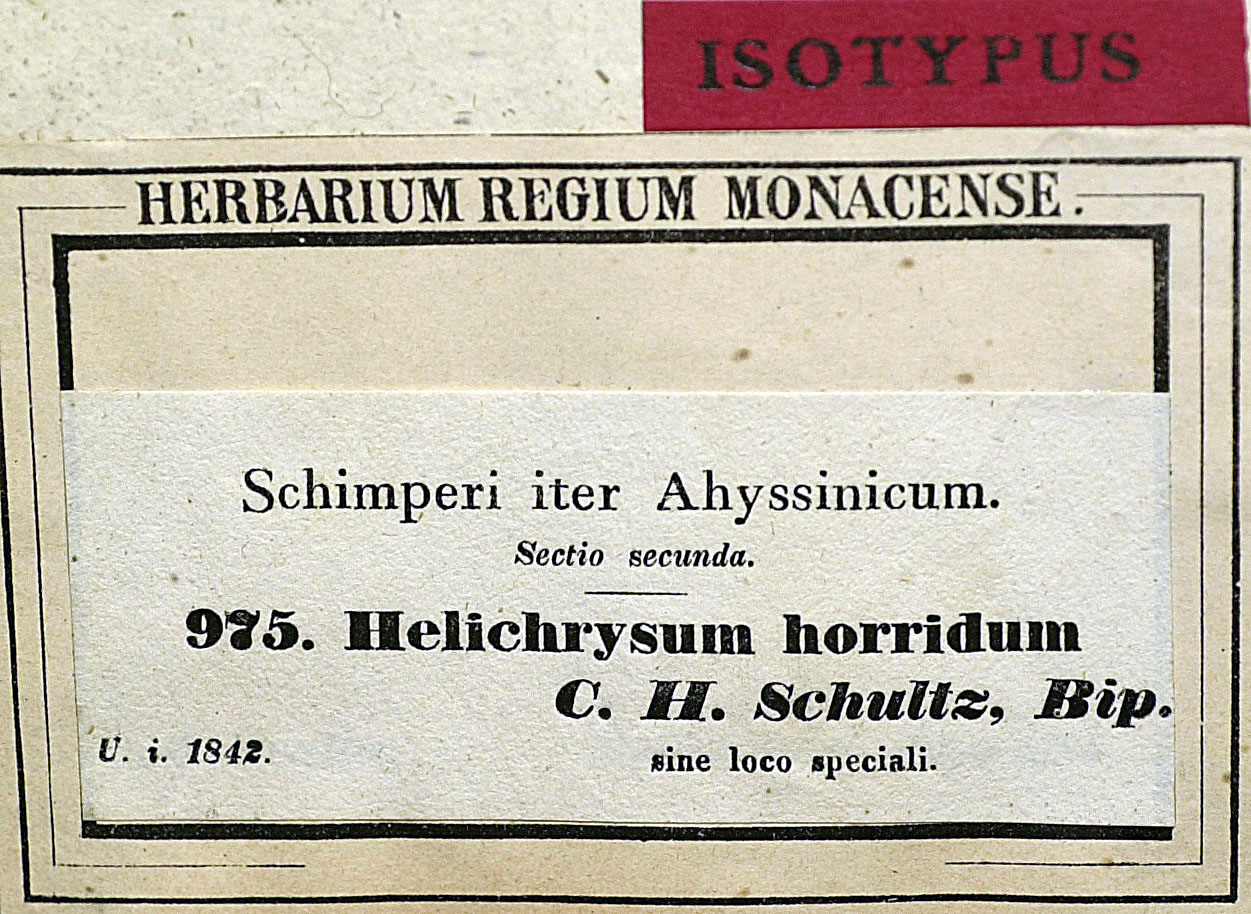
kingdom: Plantae
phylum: Tracheophyta
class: Magnoliopsida
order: Asterales
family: Asteraceae
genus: Helichrysum
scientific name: Helichrysum horridum
